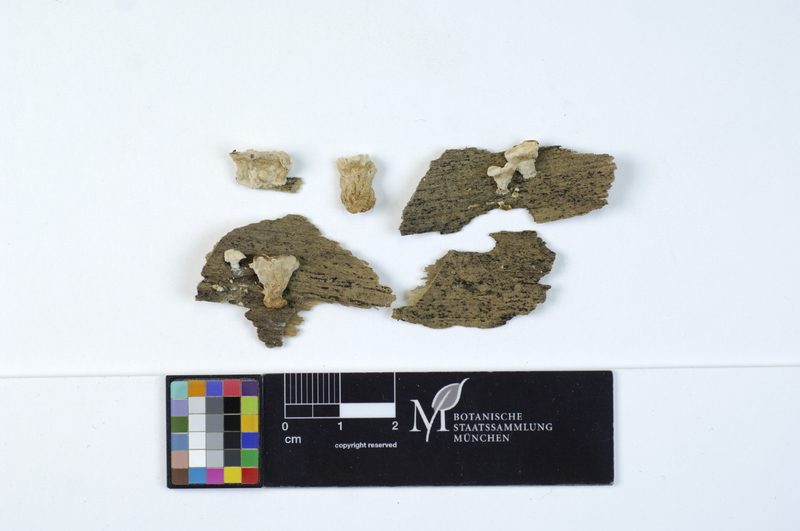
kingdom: Fungi
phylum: Basidiomycota
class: Agaricomycetes
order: Polyporales
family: Polyporaceae
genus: Cyanosporus
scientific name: Cyanosporus caesius
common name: Blue cheese polypore
